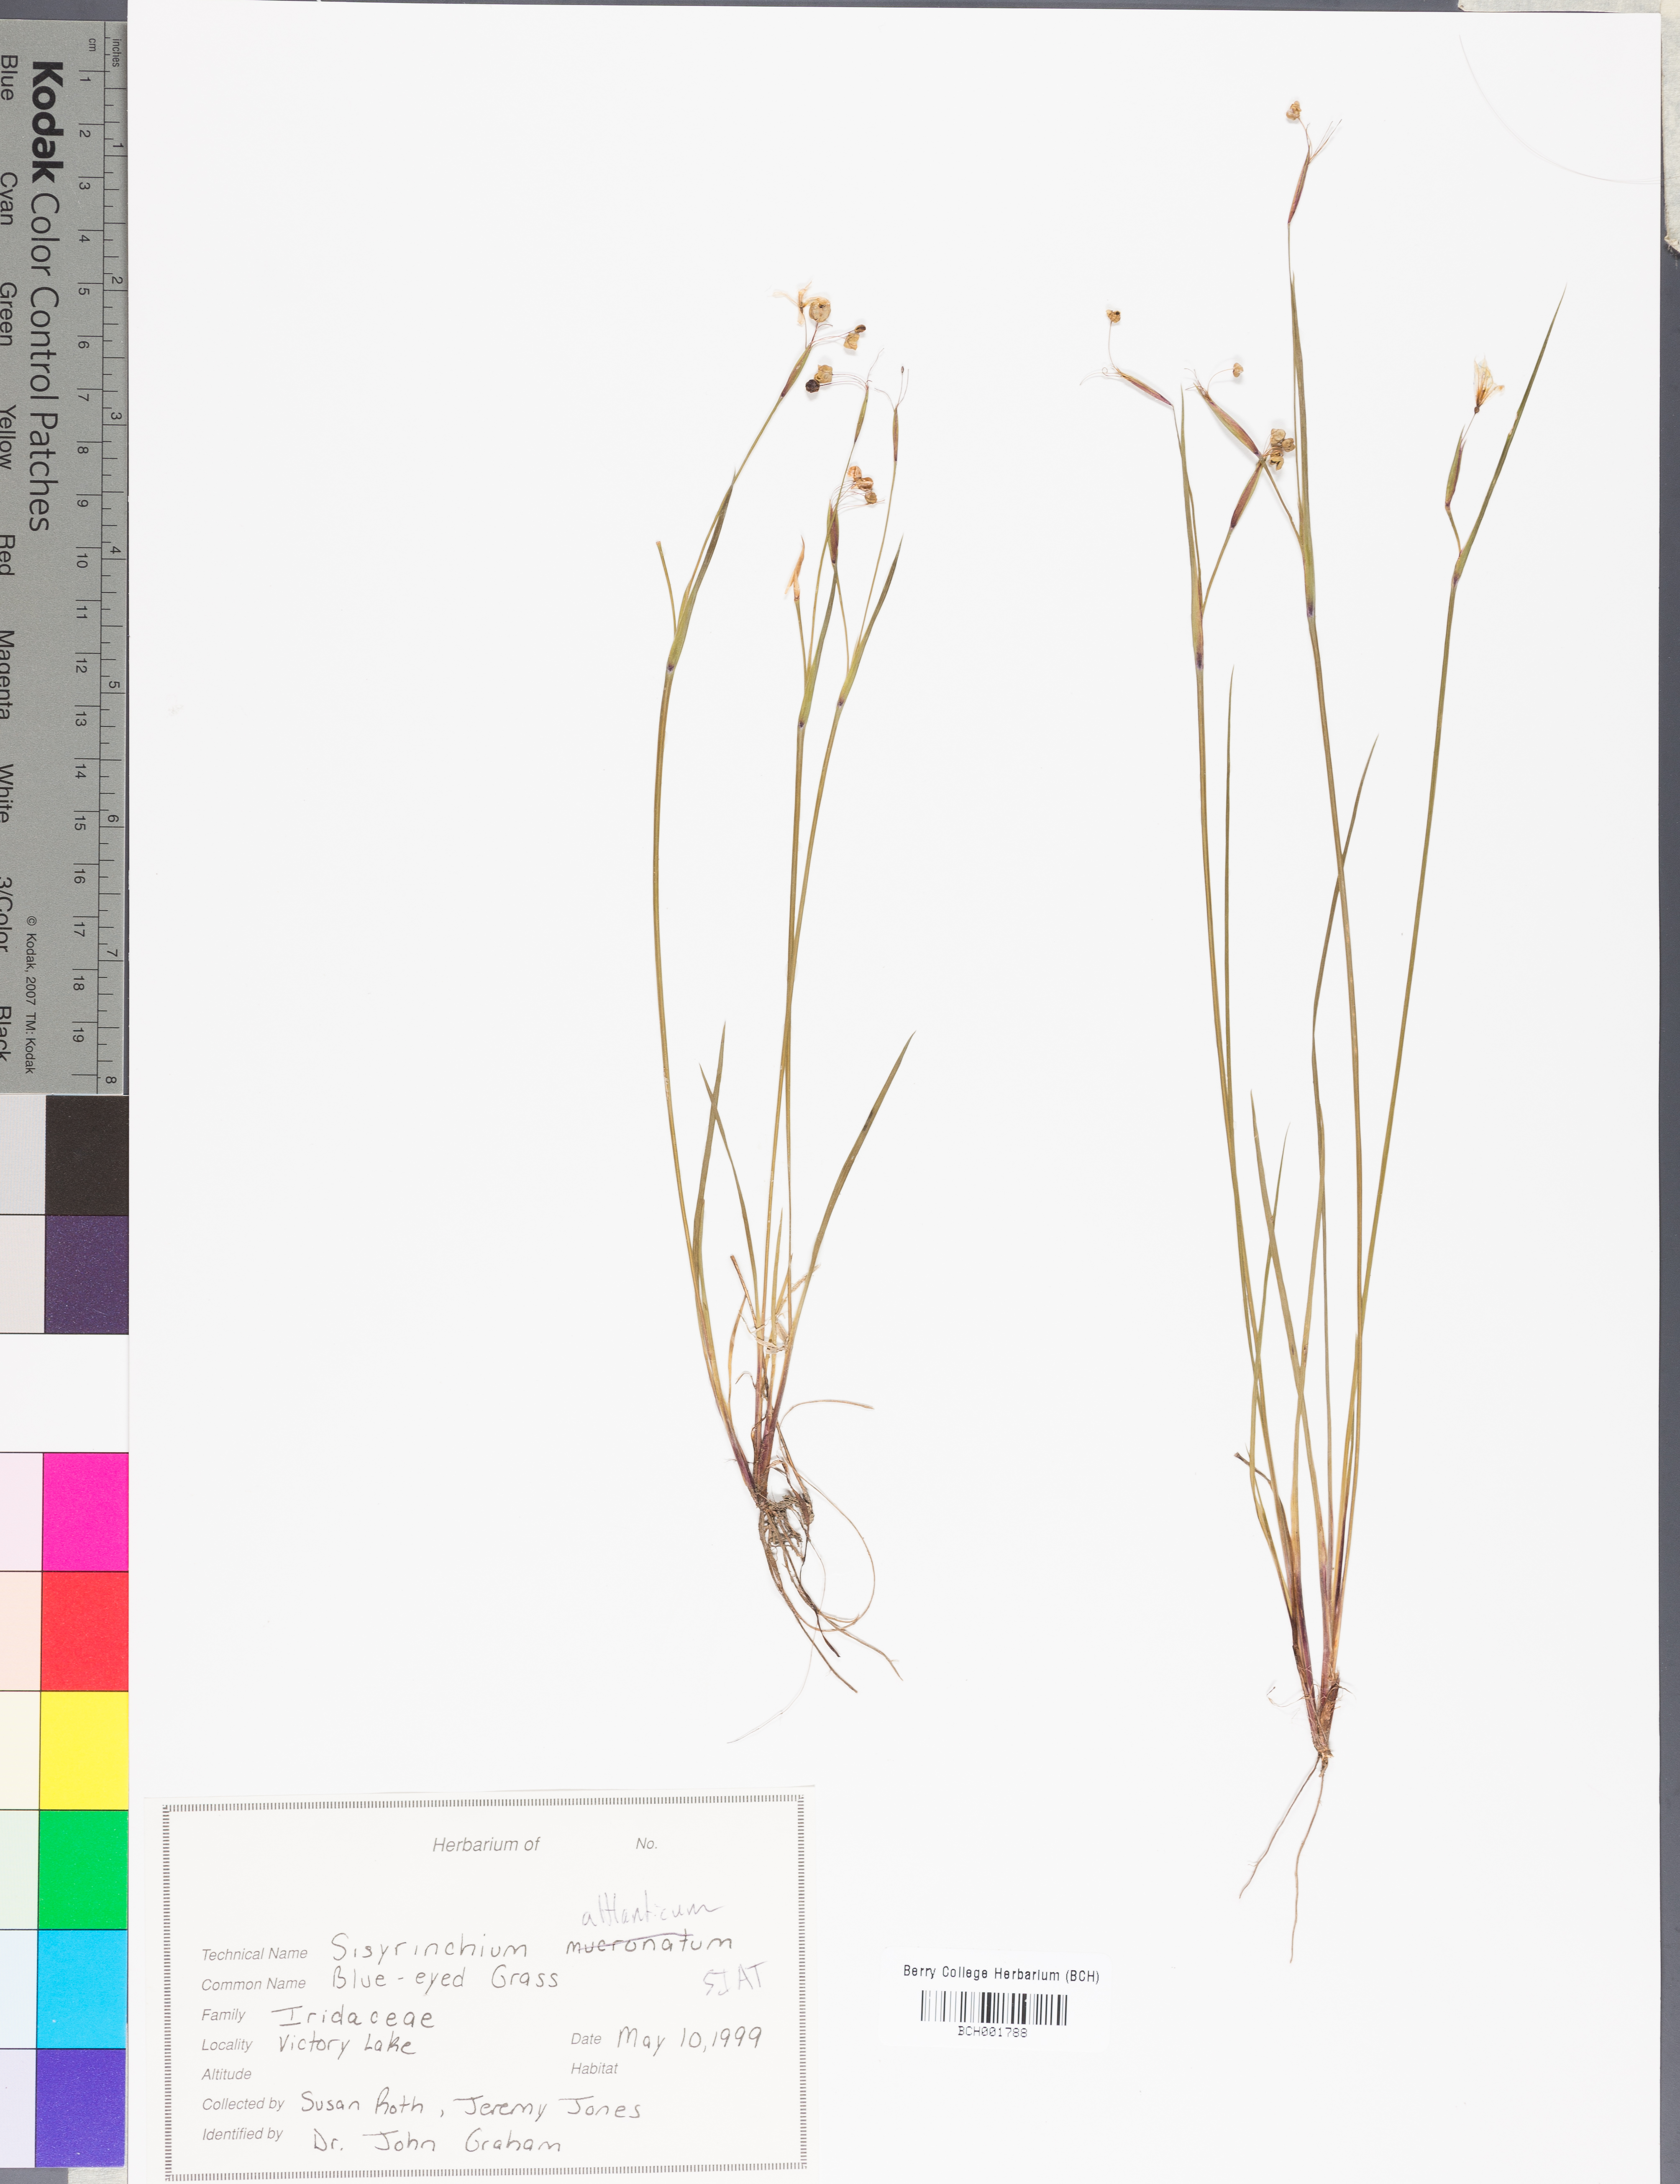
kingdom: Plantae
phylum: Tracheophyta
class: Liliopsida
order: Asparagales
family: Iridaceae
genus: Sisyrinchium
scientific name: Sisyrinchium atlanticum
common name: Eastern blue-eyed-grass
